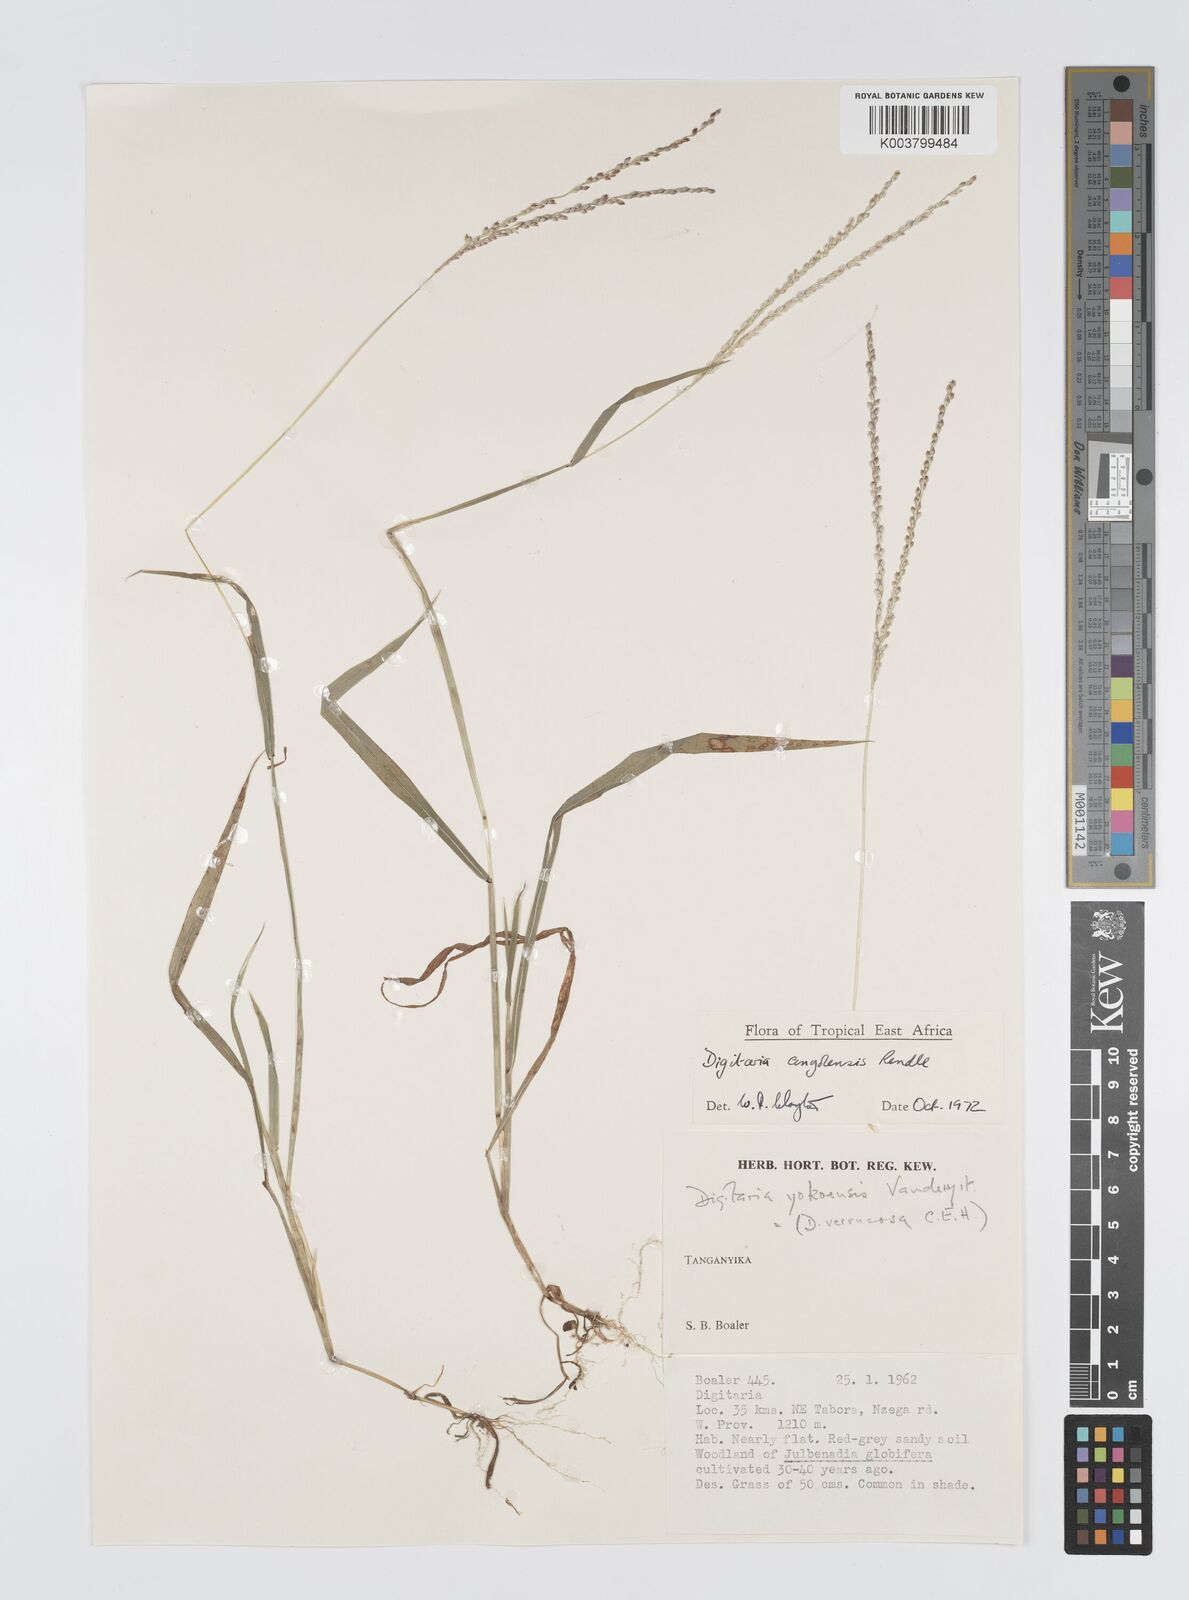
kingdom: Plantae
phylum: Tracheophyta
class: Liliopsida
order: Poales
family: Poaceae
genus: Digitaria
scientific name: Digitaria angolensis
